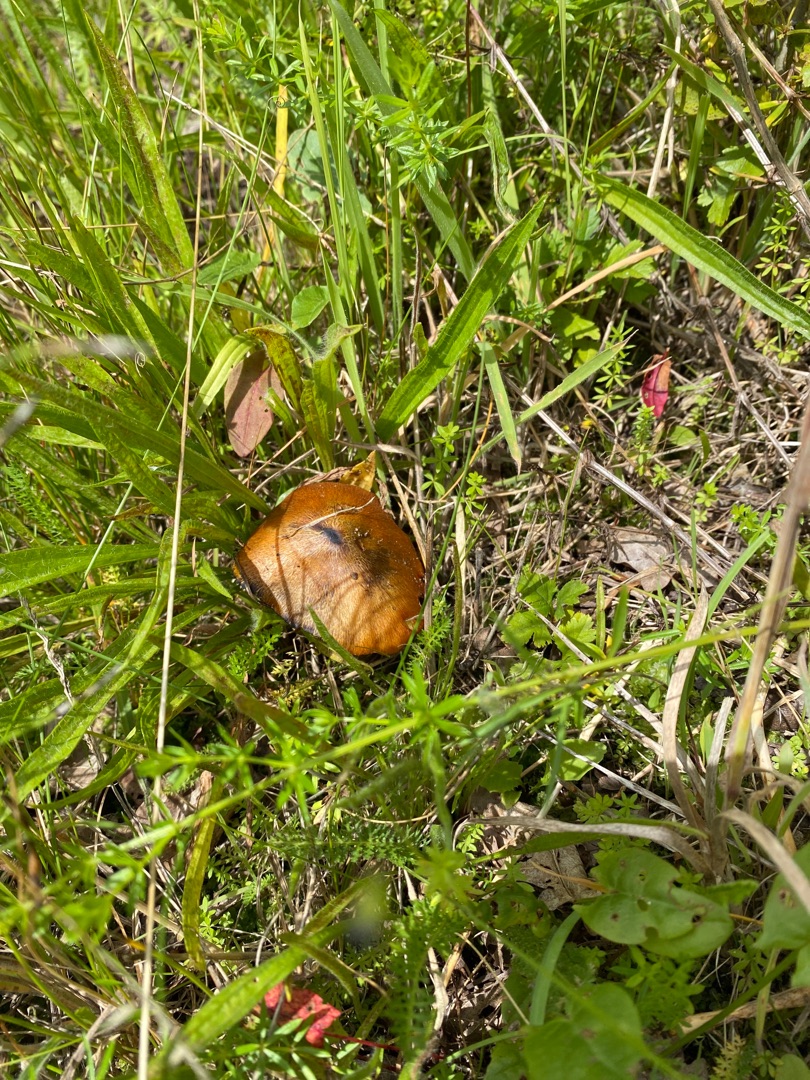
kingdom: Fungi
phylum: Basidiomycota
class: Agaricomycetes
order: Agaricales
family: Hygrophoraceae
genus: Hygrocybe
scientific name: Hygrocybe conica
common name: Kegle-vokshat
